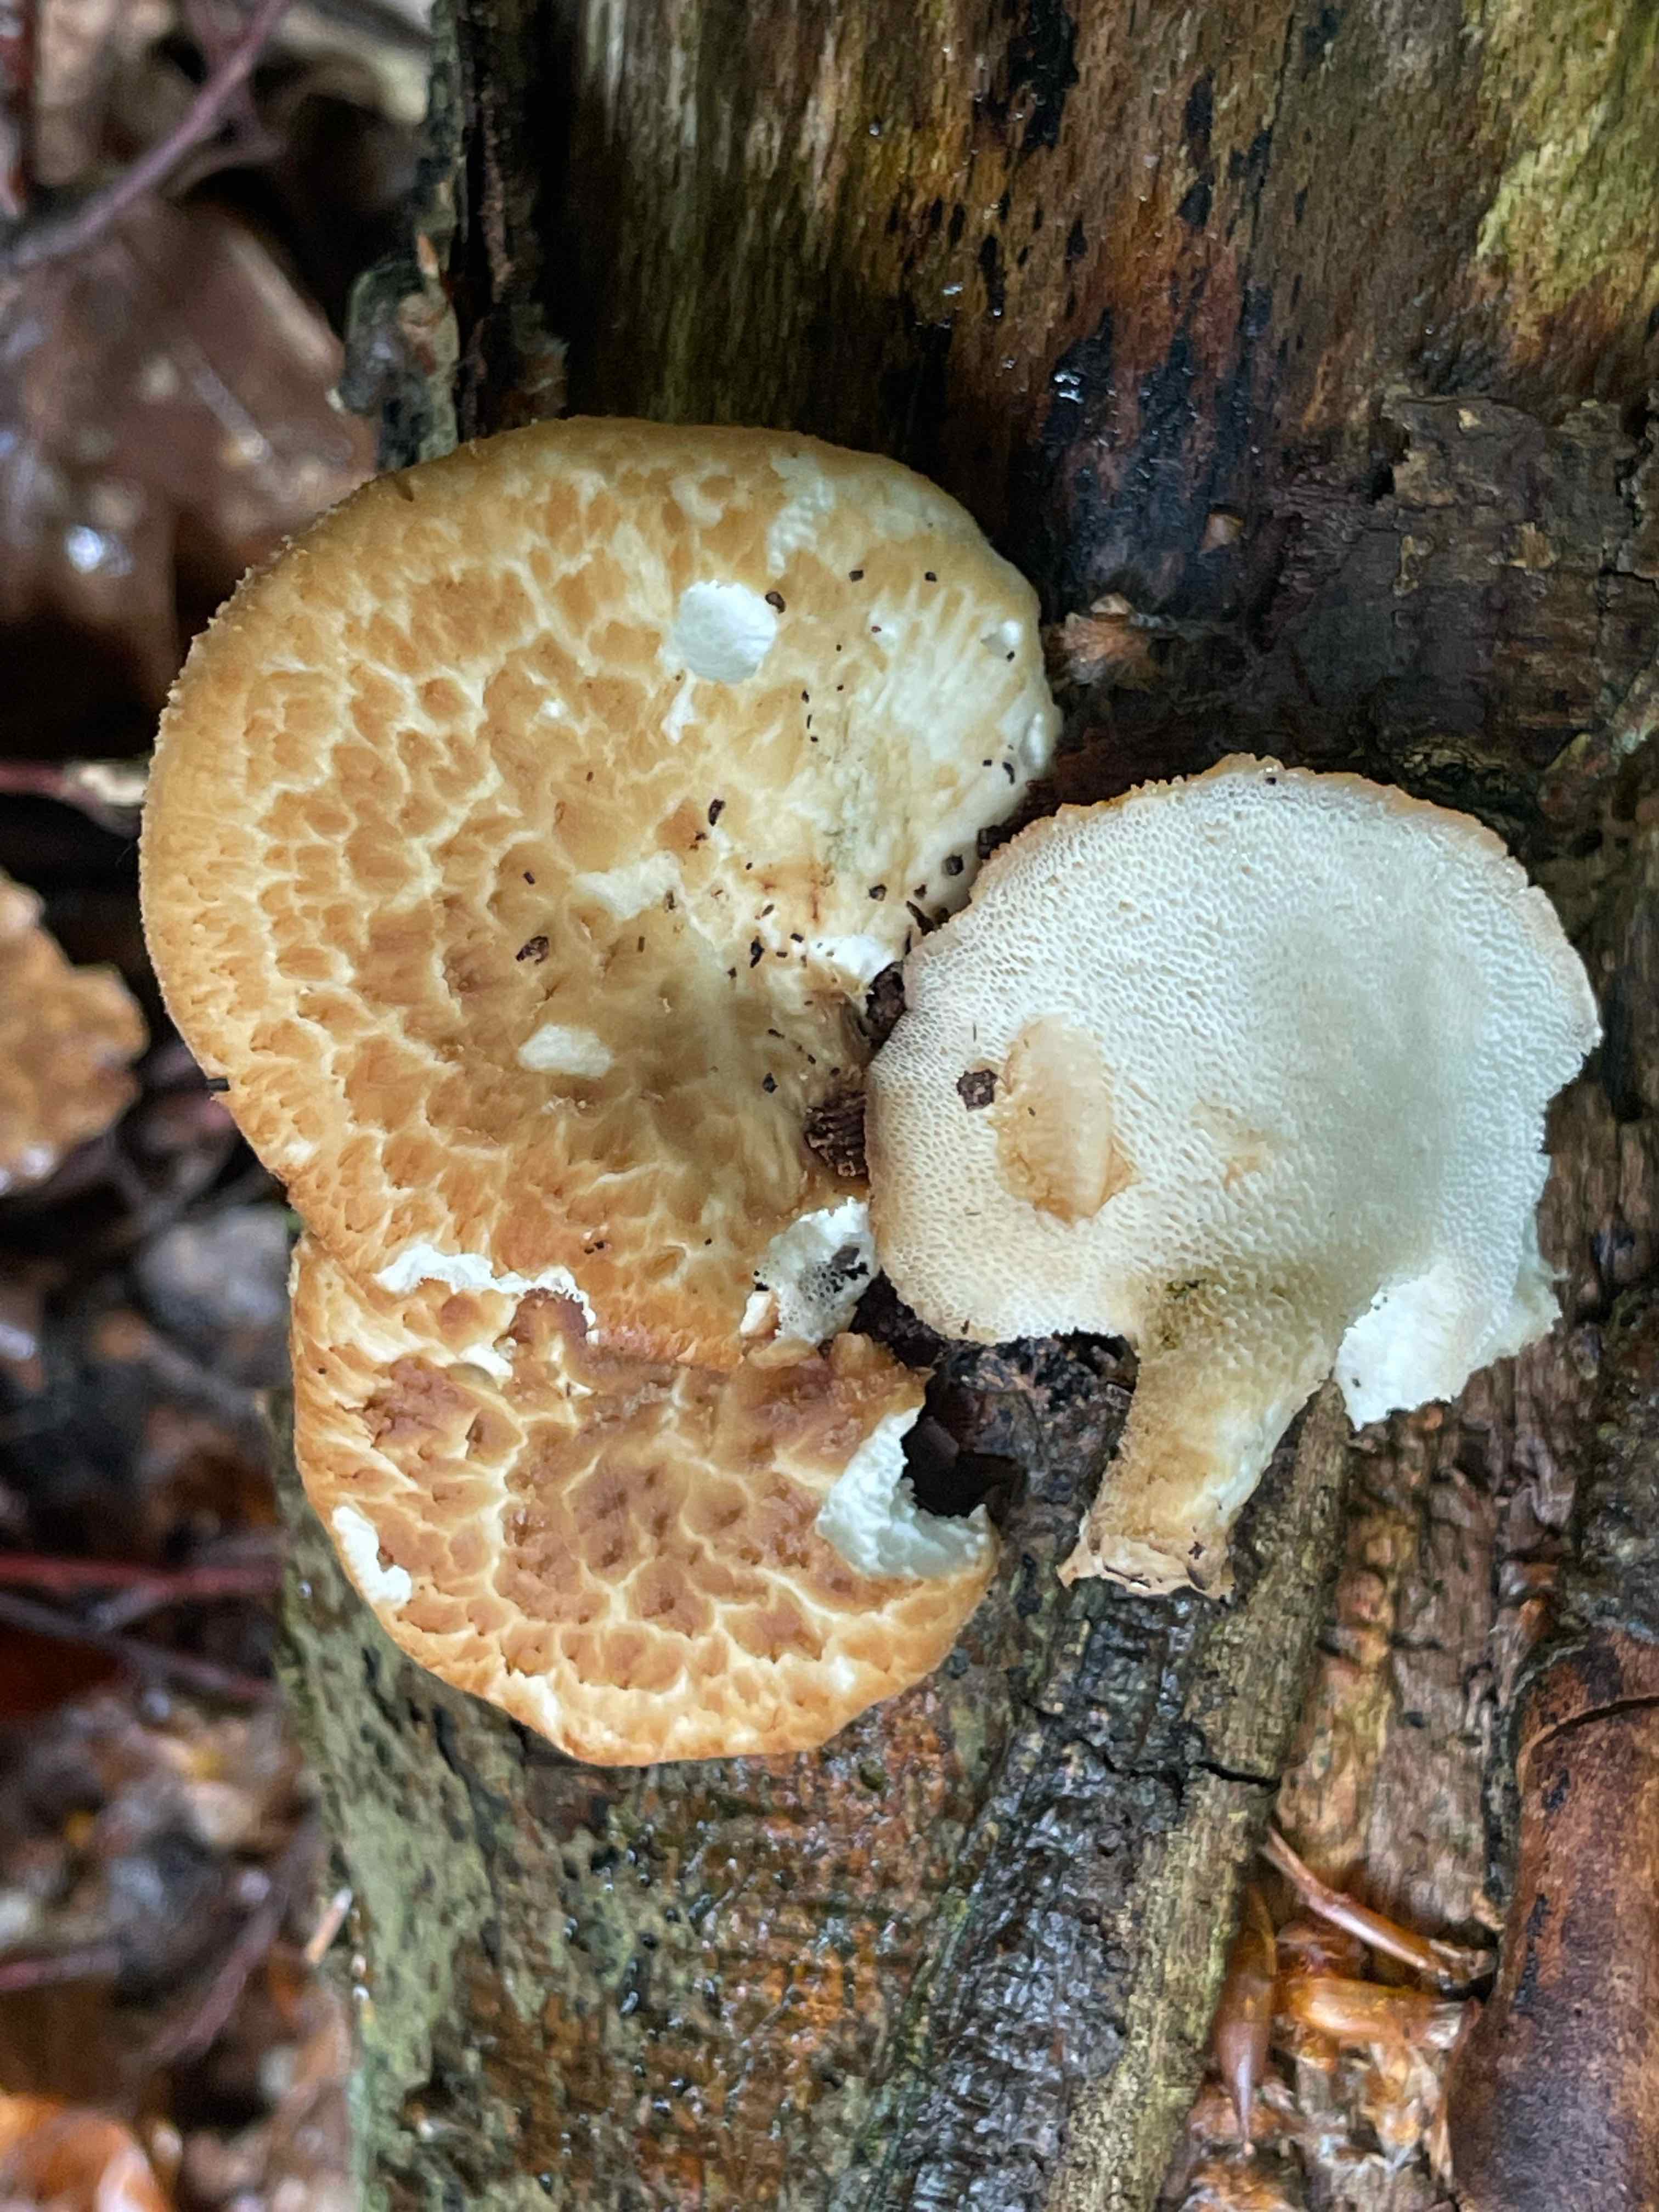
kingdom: Fungi
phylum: Basidiomycota
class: Agaricomycetes
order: Polyporales
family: Polyporaceae
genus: Polyporus
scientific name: Polyporus tuberaster
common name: knoldet stilkporesvamp
